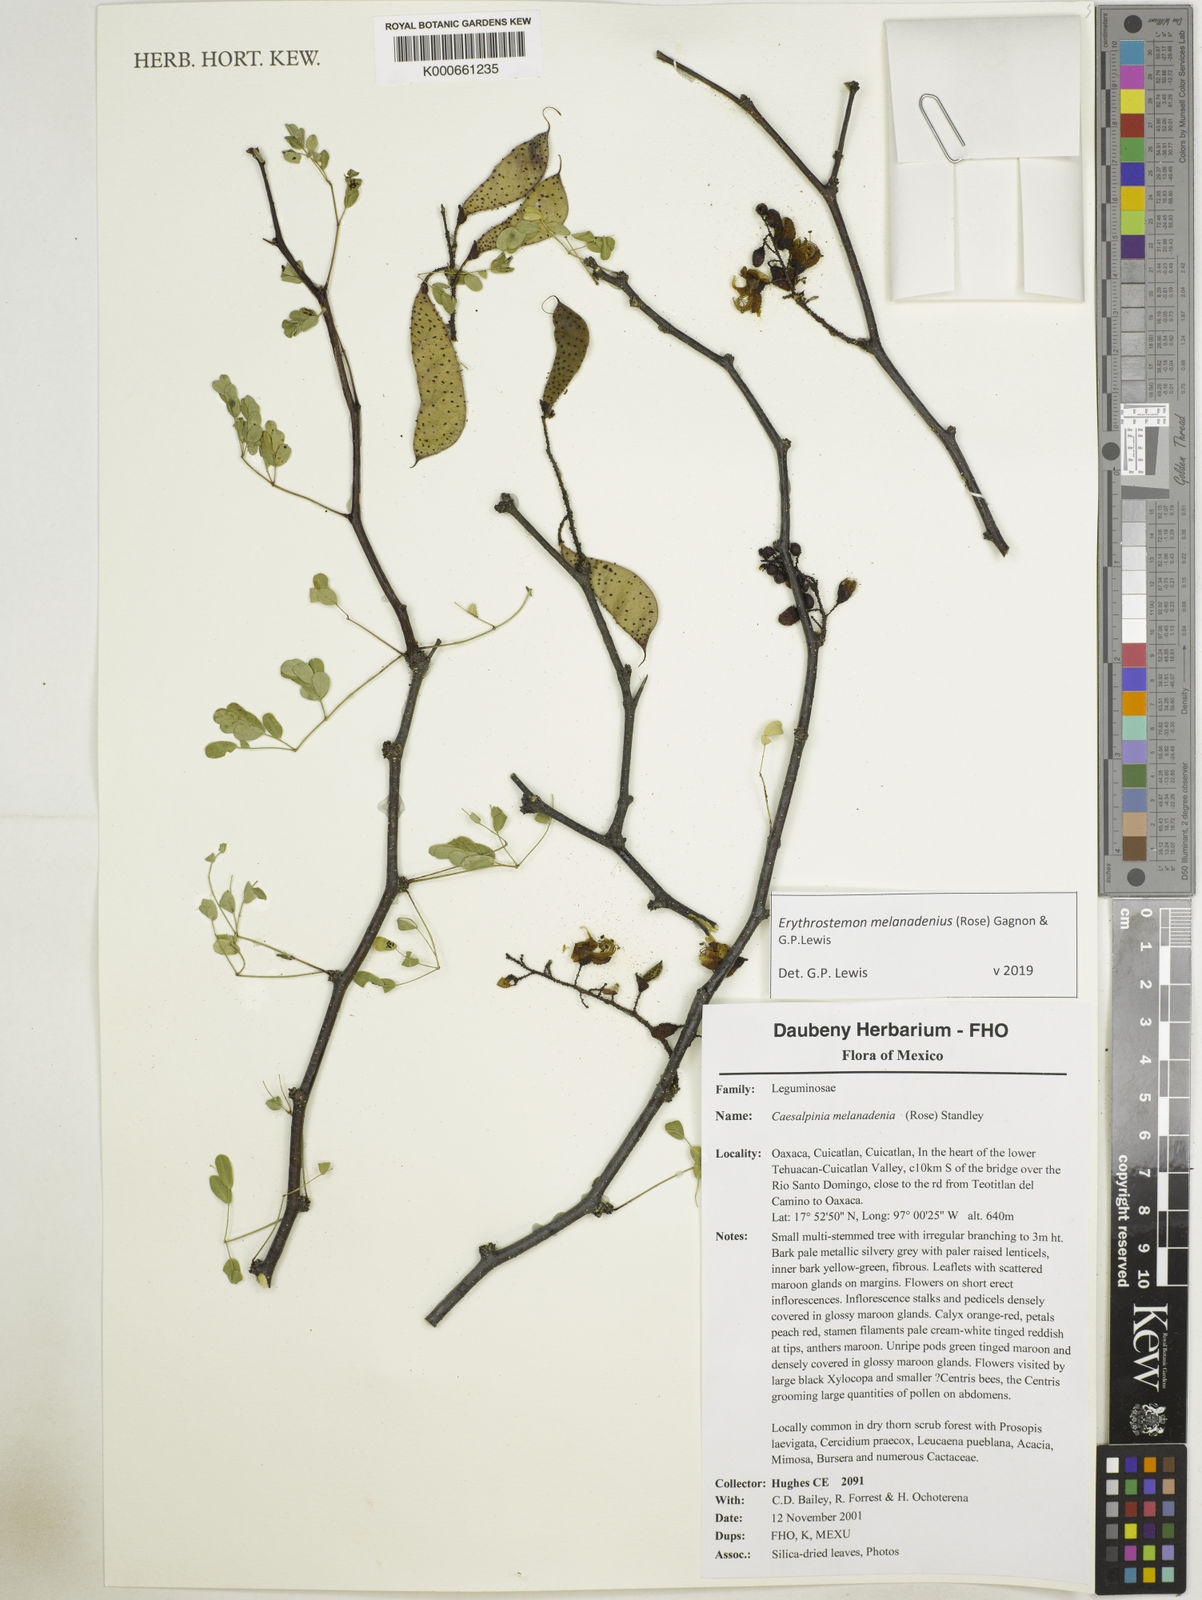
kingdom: Plantae
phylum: Tracheophyta
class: Magnoliopsida
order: Fabales
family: Fabaceae
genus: Erythrostemon
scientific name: Erythrostemon melanadenius
